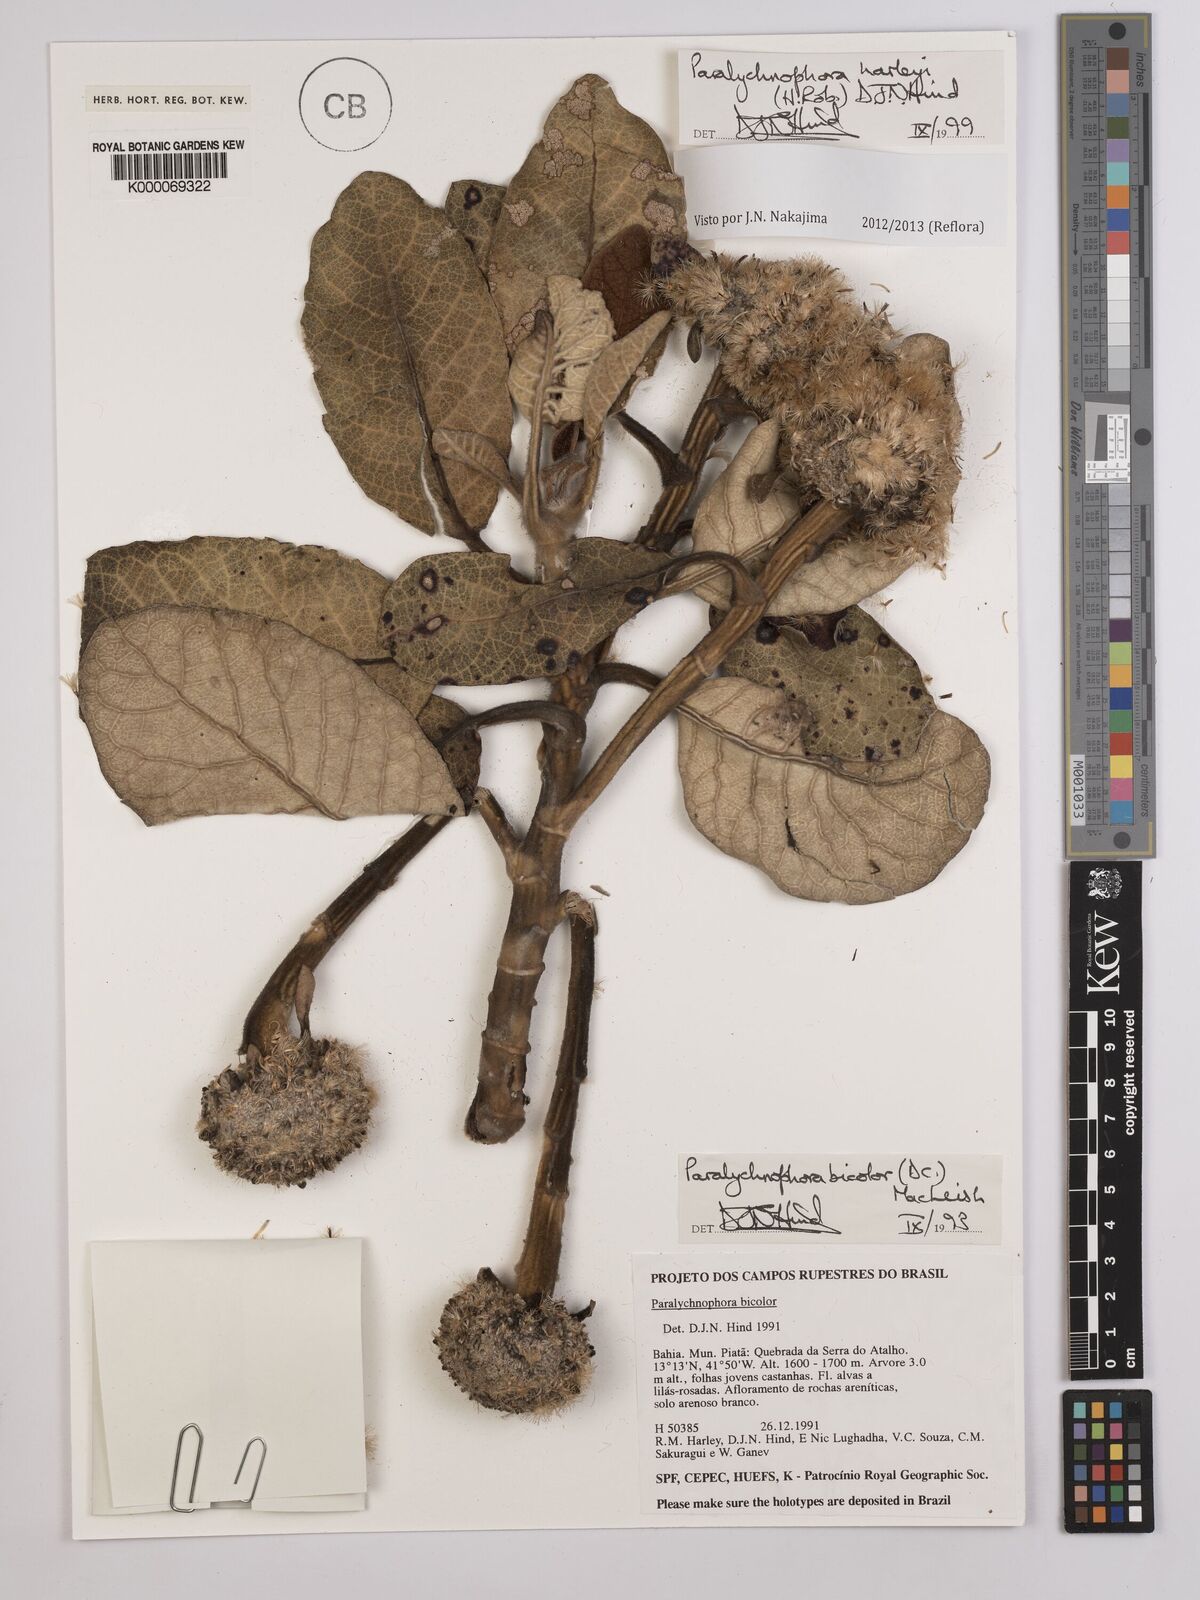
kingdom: Plantae
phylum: Tracheophyta
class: Magnoliopsida
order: Asterales
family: Asteraceae
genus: Paralychnophora
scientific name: Paralychnophora harleyi
